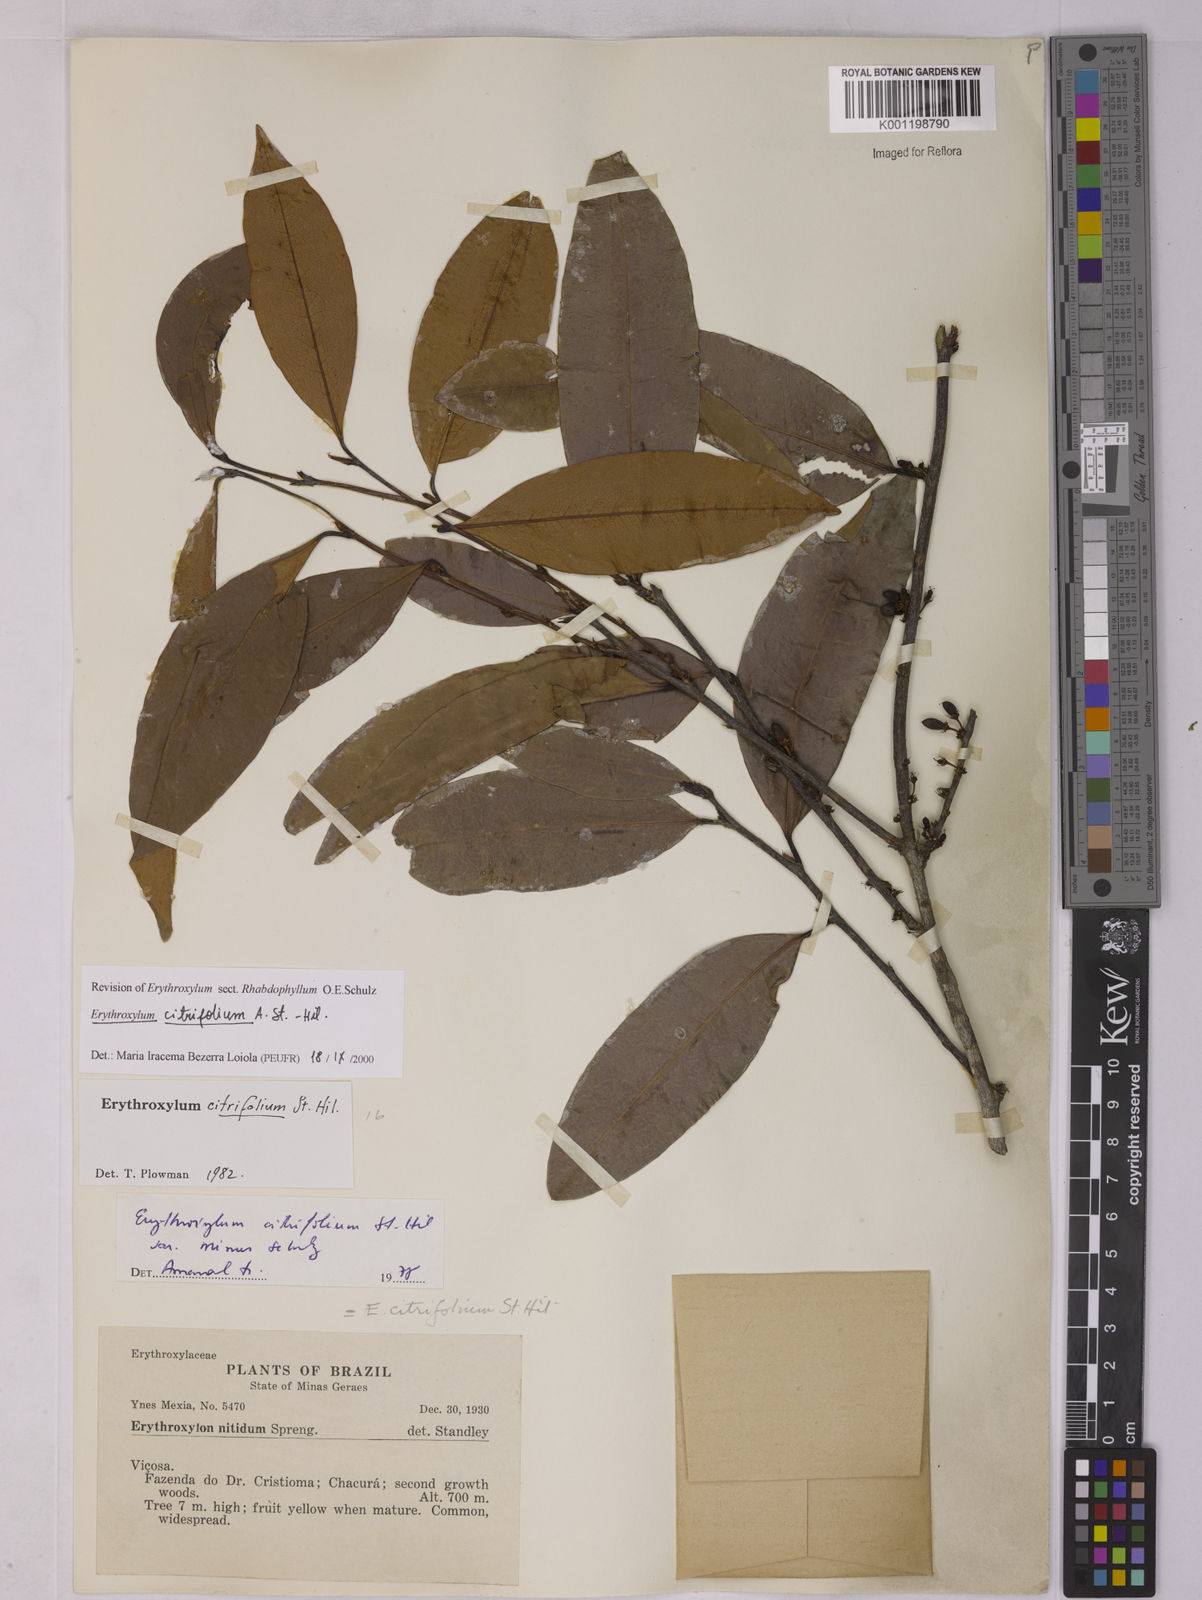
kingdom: Plantae
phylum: Tracheophyta
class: Magnoliopsida
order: Malpighiales
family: Erythroxylaceae
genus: Erythroxylum
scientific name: Erythroxylum citrifolium
